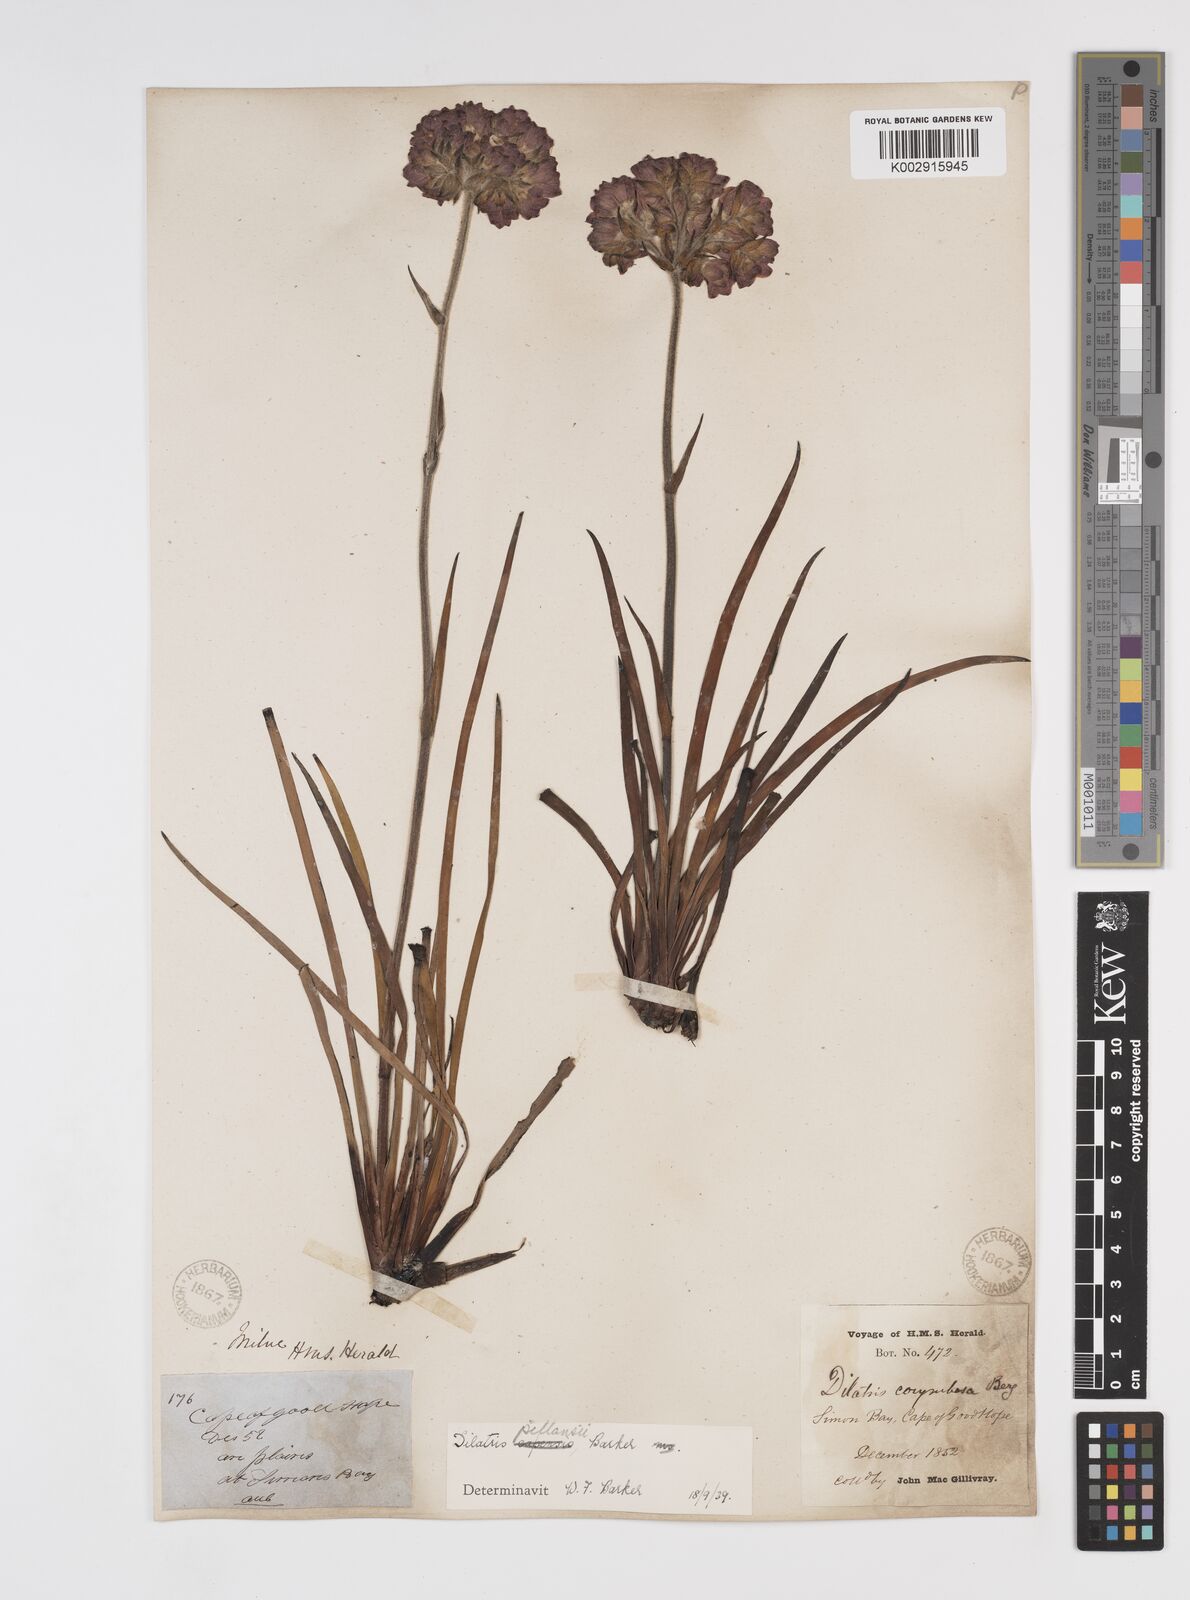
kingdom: Plantae
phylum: Tracheophyta
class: Liliopsida
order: Commelinales
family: Haemodoraceae
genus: Dilatris
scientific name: Dilatris pillansii
